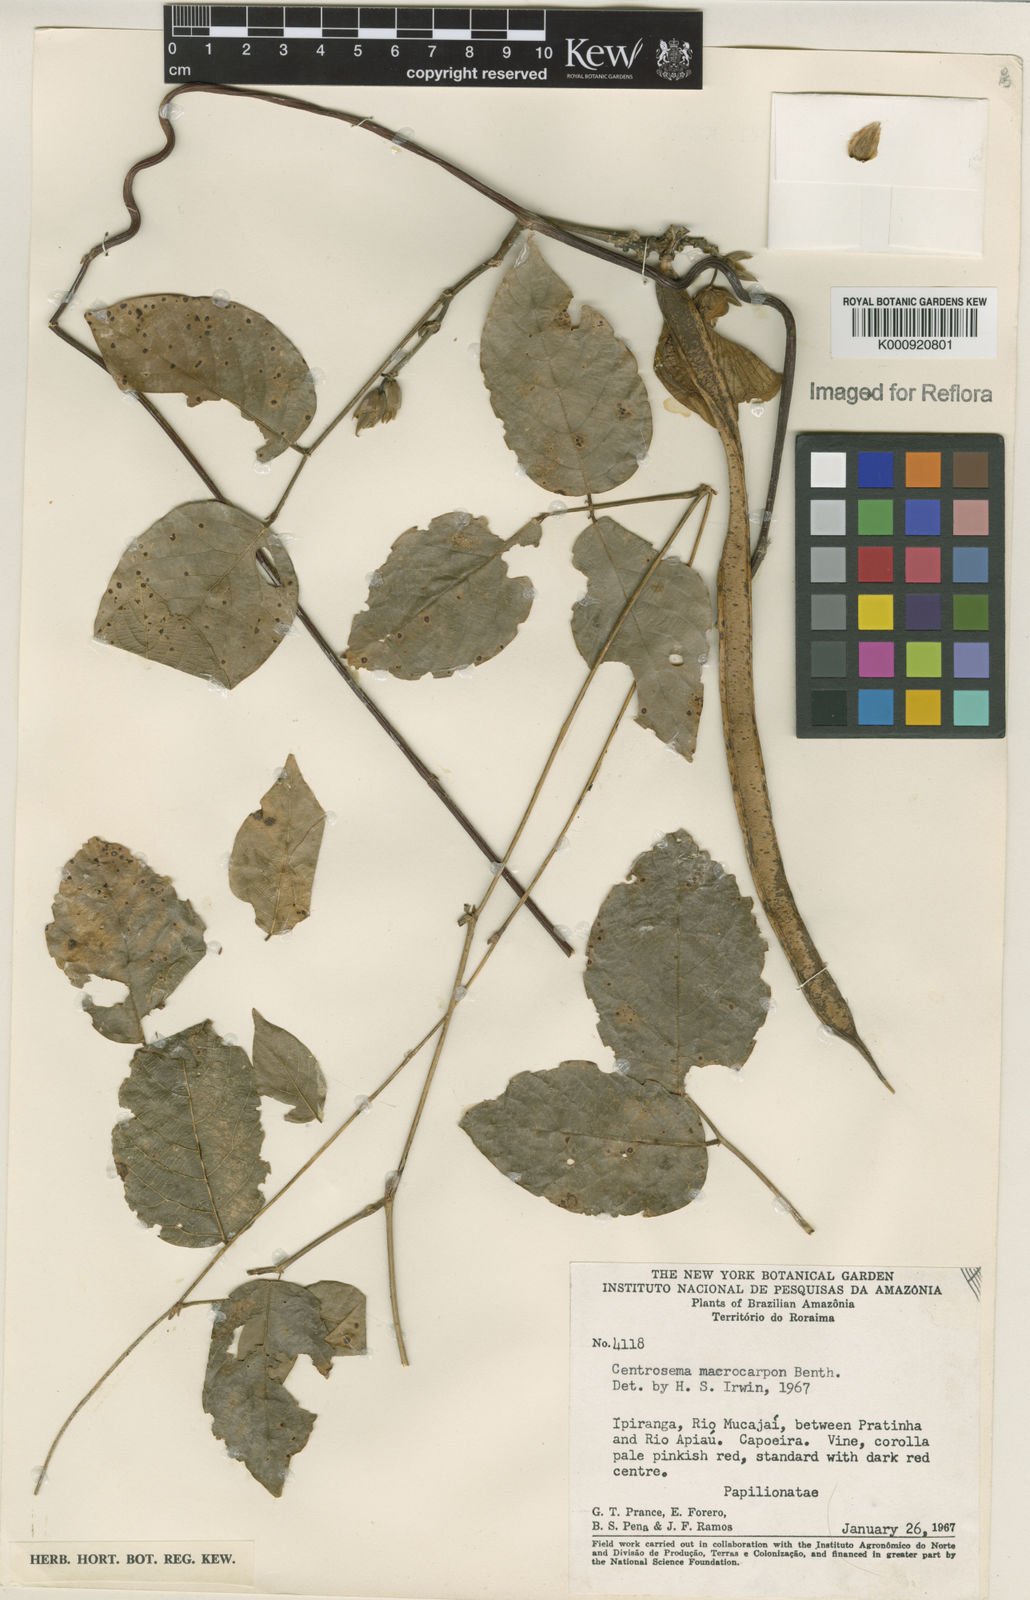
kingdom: Plantae
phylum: Tracheophyta
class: Magnoliopsida
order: Fabales
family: Fabaceae
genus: Centrosema
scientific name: Centrosema macrocarpum
